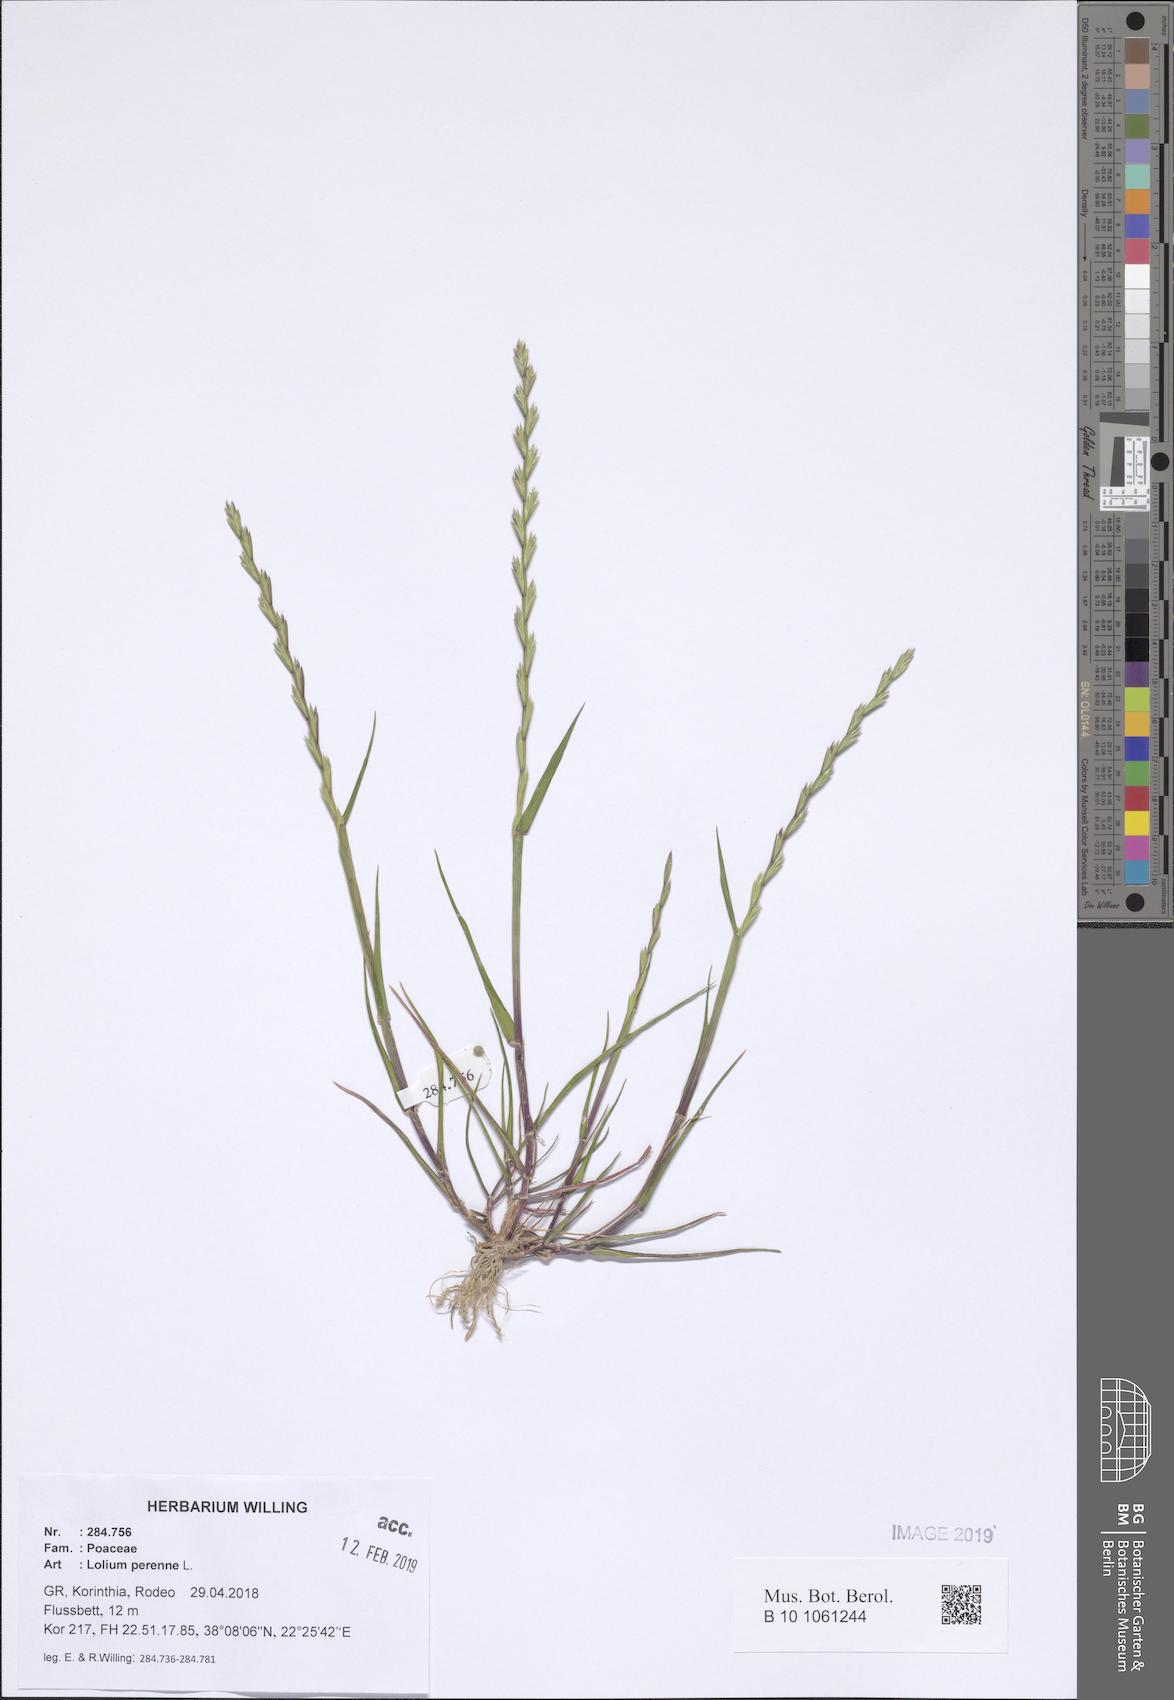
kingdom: Plantae
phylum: Tracheophyta
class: Liliopsida
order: Poales
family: Poaceae
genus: Lolium
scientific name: Lolium perenne
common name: Perennial ryegrass
